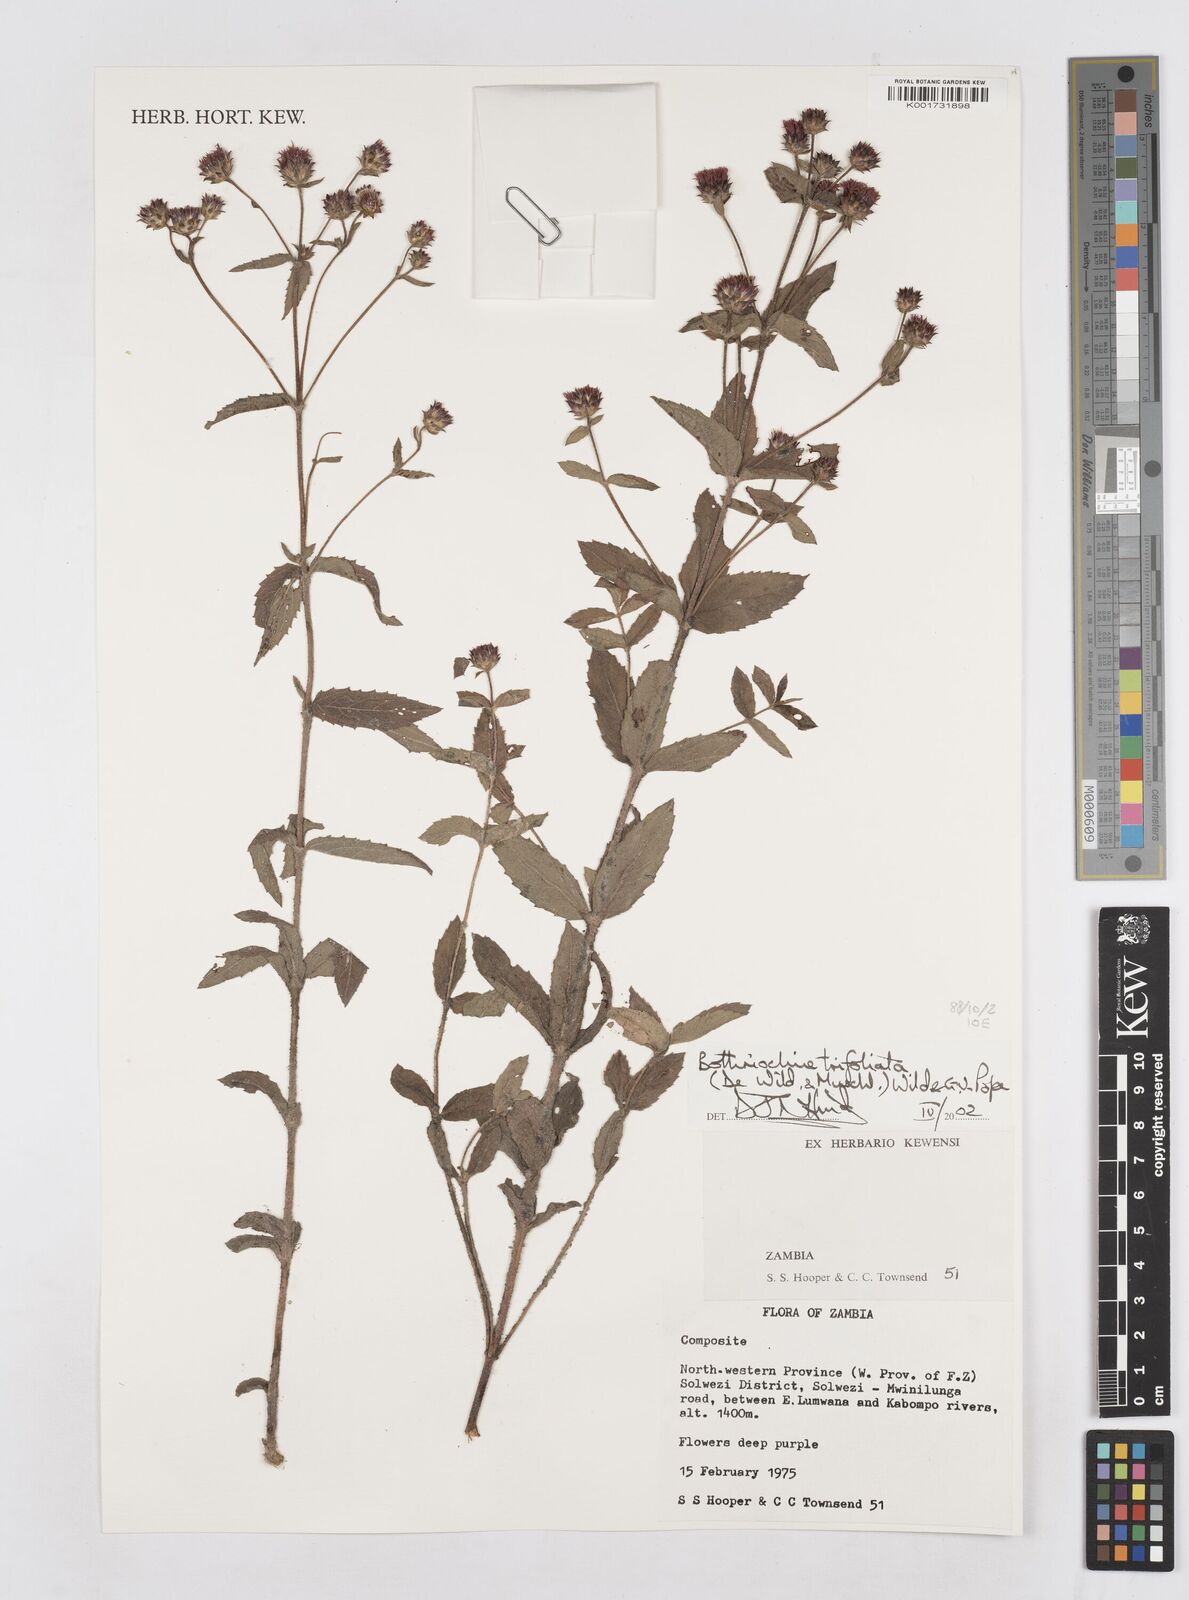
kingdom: Plantae
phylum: Tracheophyta
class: Magnoliopsida
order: Asterales
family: Asteraceae
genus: Bothriocline
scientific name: Bothriocline trifoliata
